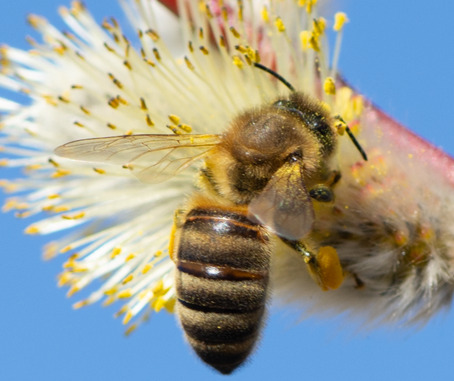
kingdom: Animalia
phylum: Arthropoda
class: Insecta
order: Hymenoptera
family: Apidae
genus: Apis
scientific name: Apis mellifera
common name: Honningbi
